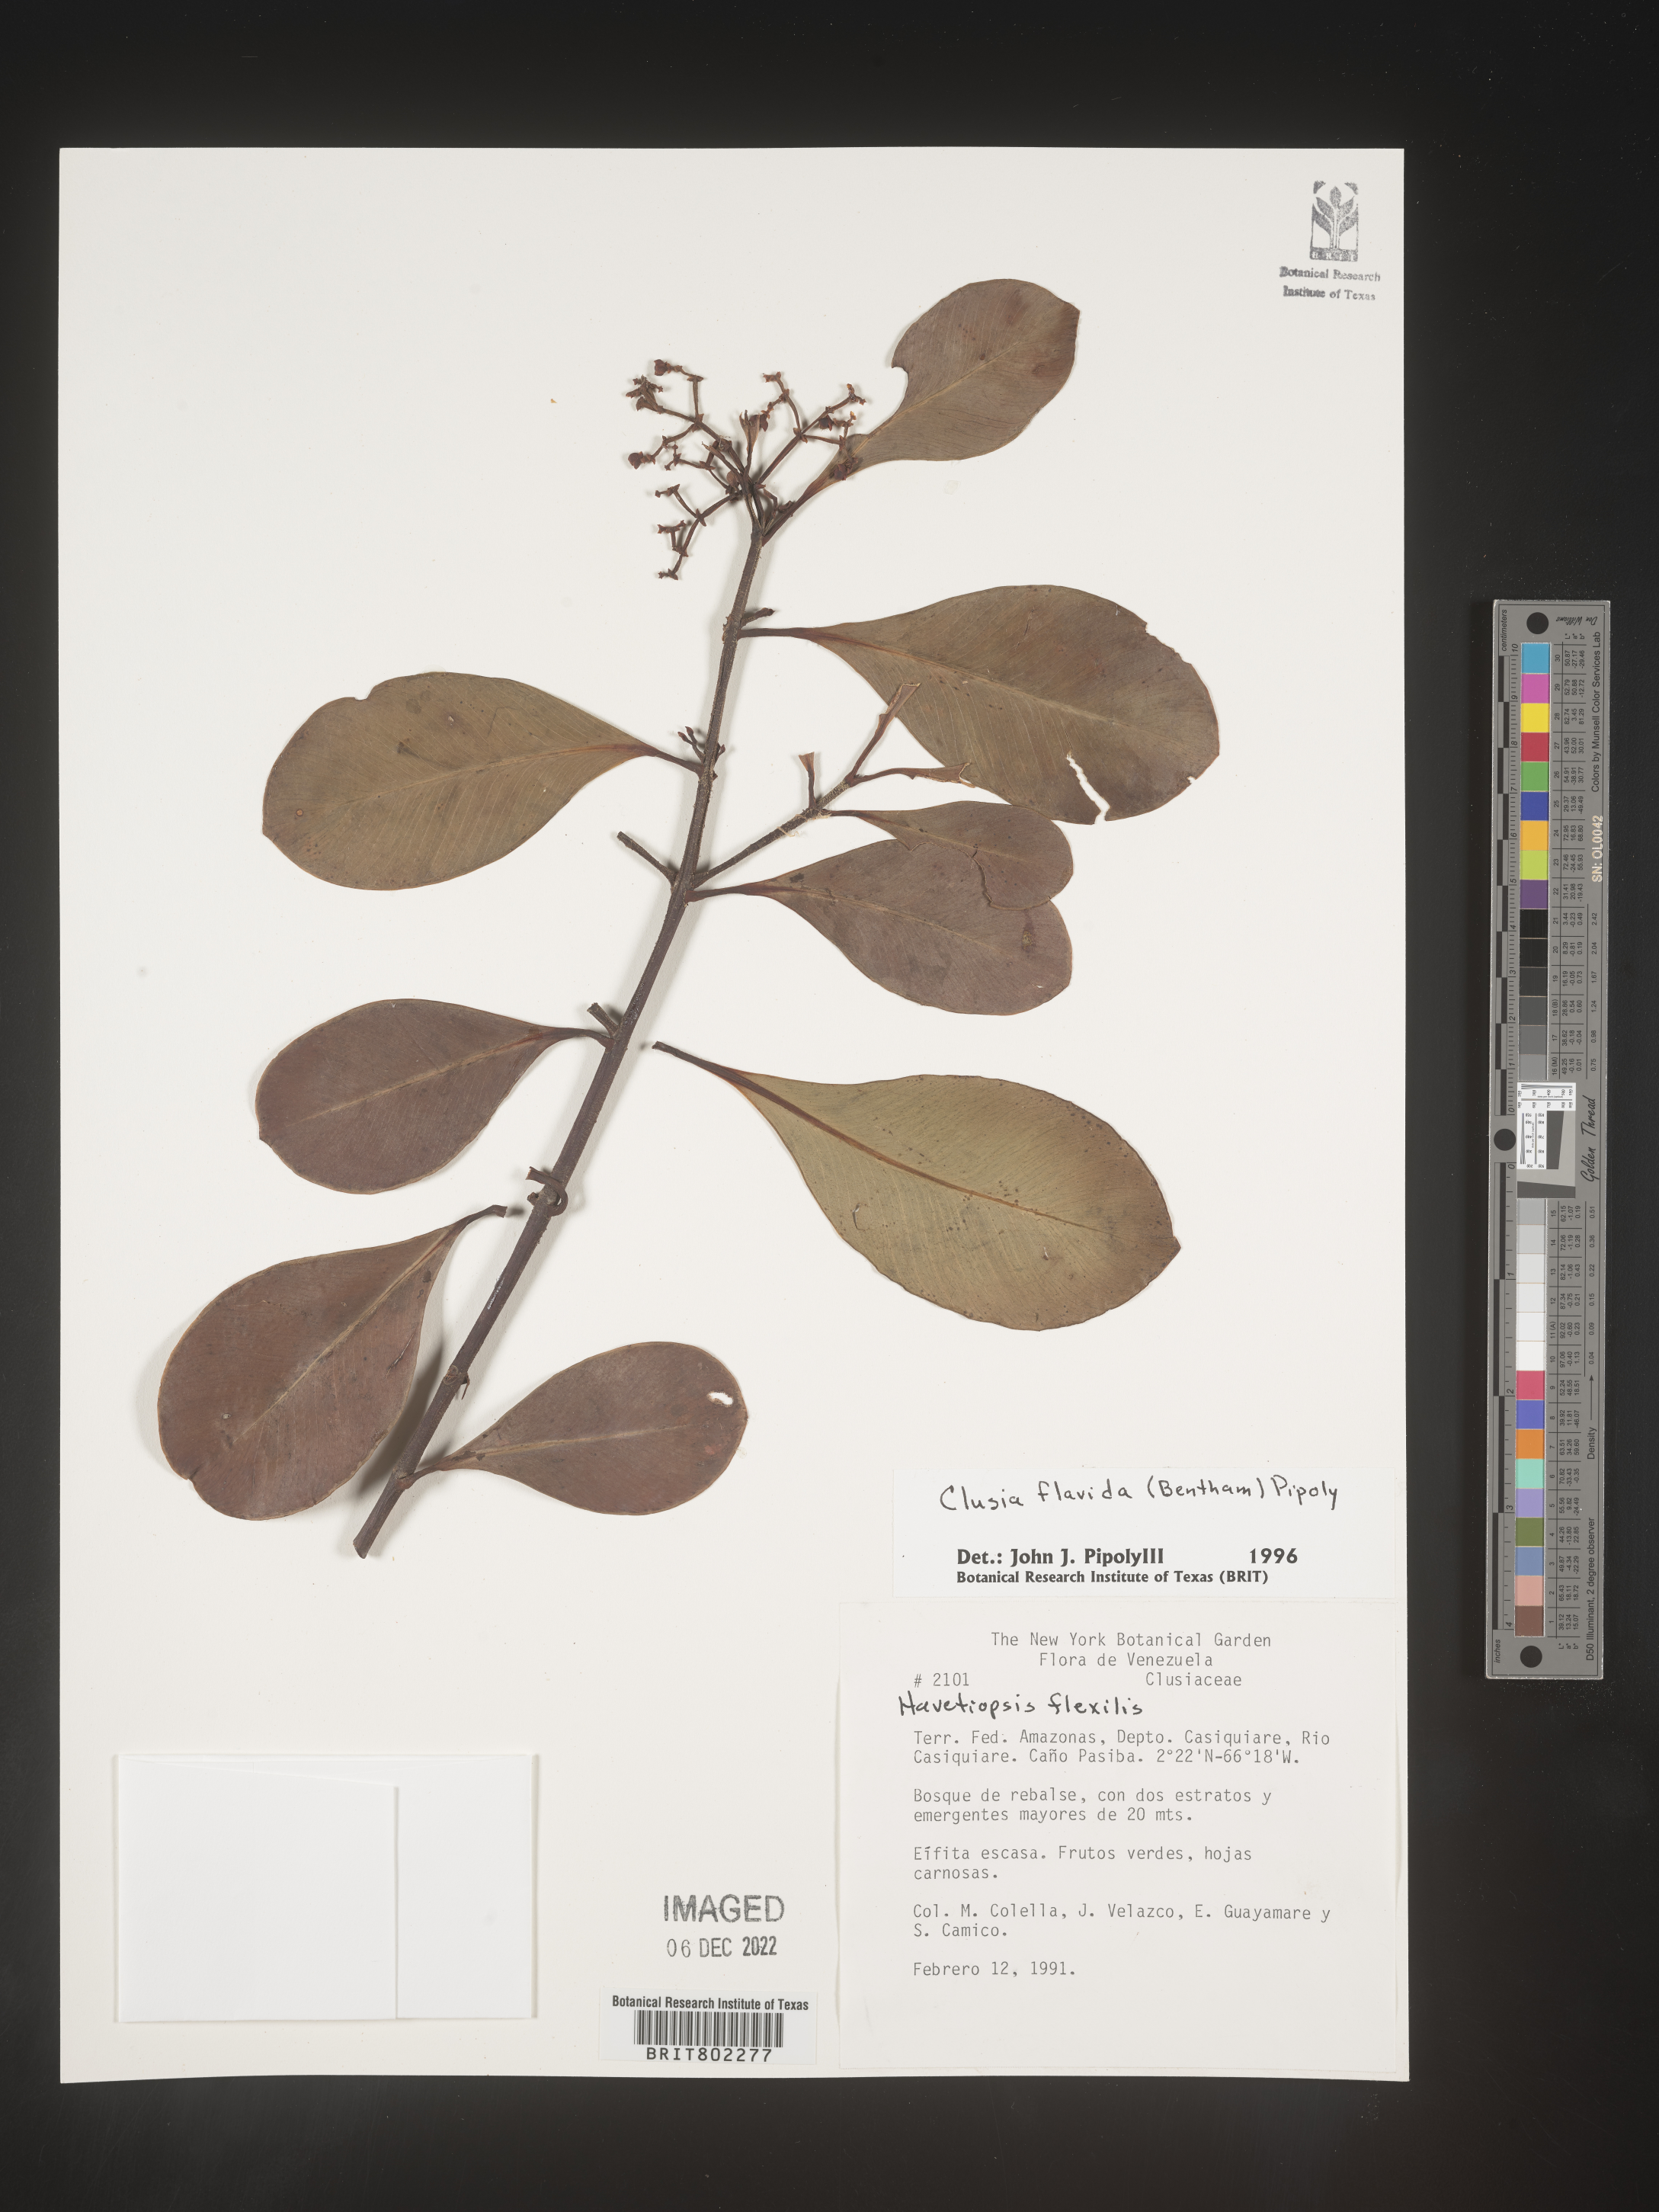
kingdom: Plantae
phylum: Tracheophyta
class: Magnoliopsida
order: Malpighiales
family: Clusiaceae
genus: Clusia
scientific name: Clusia flavida
